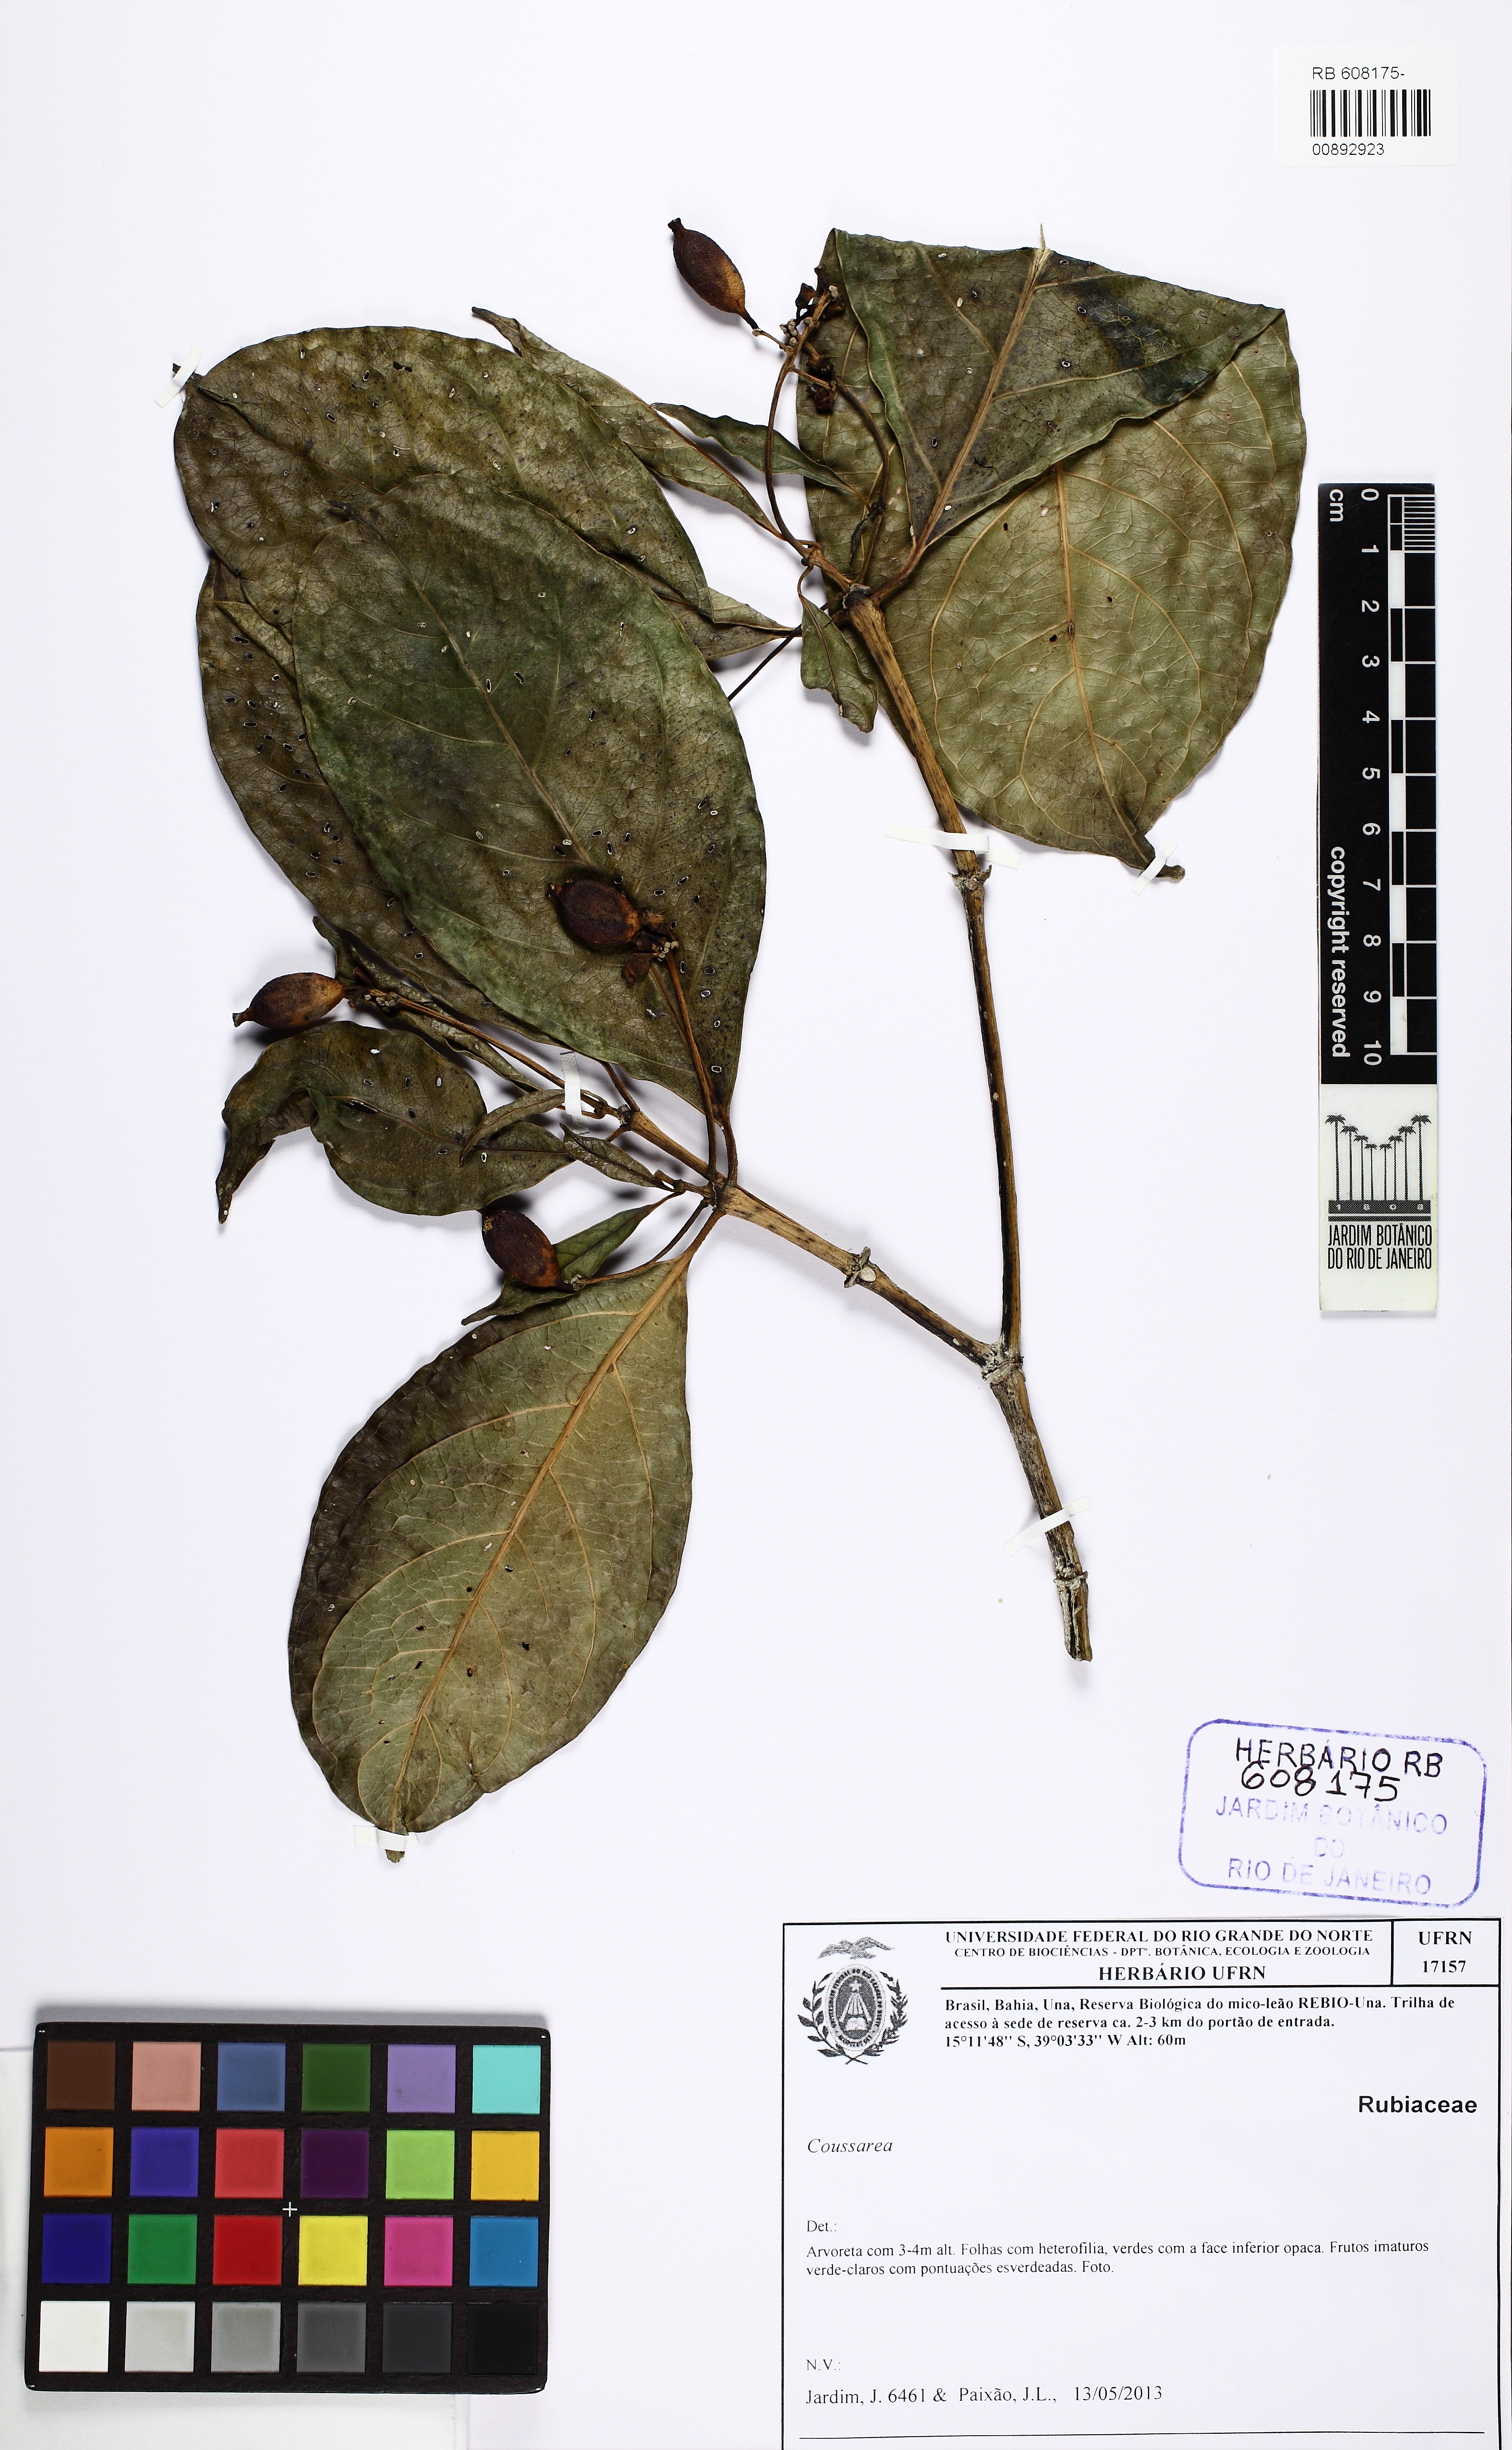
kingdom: Plantae
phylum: Tracheophyta
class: Magnoliopsida
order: Gentianales
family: Rubiaceae
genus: Coussarea
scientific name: Coussarea
